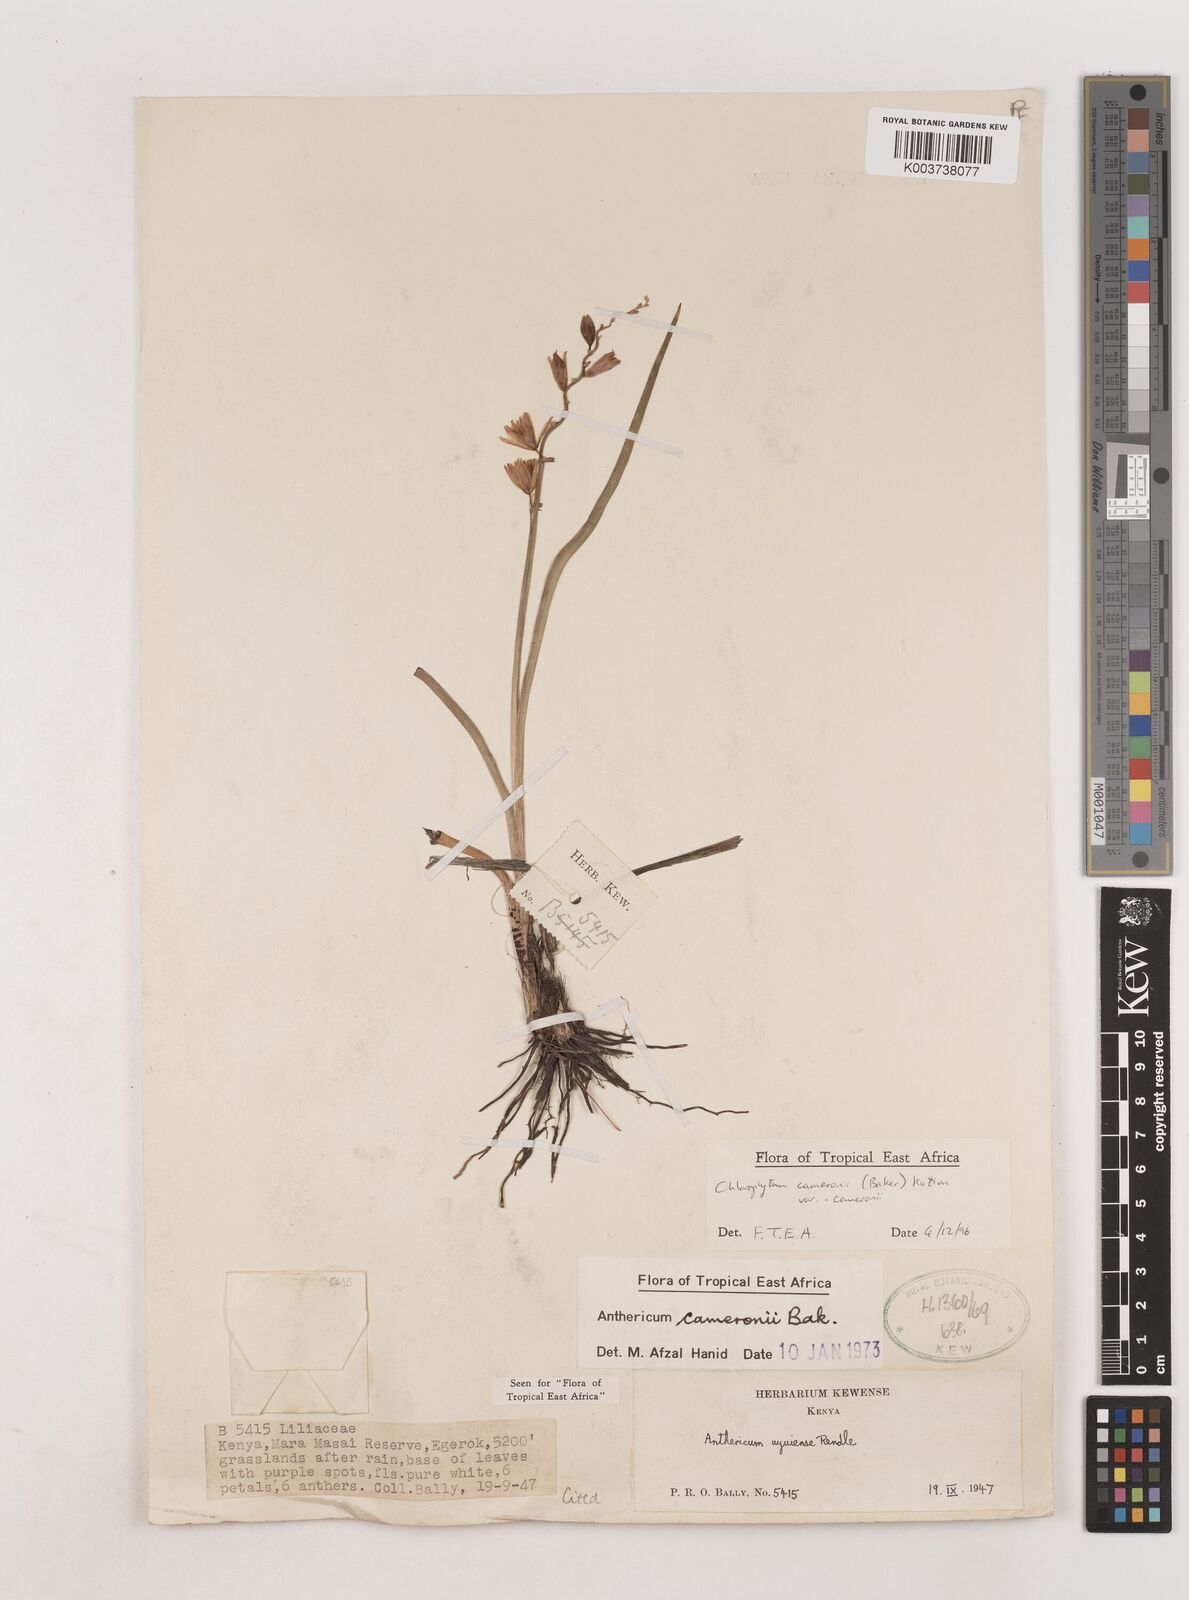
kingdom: Plantae
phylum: Tracheophyta
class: Liliopsida
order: Asparagales
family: Asparagaceae
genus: Chlorophytum
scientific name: Chlorophytum cameronii
